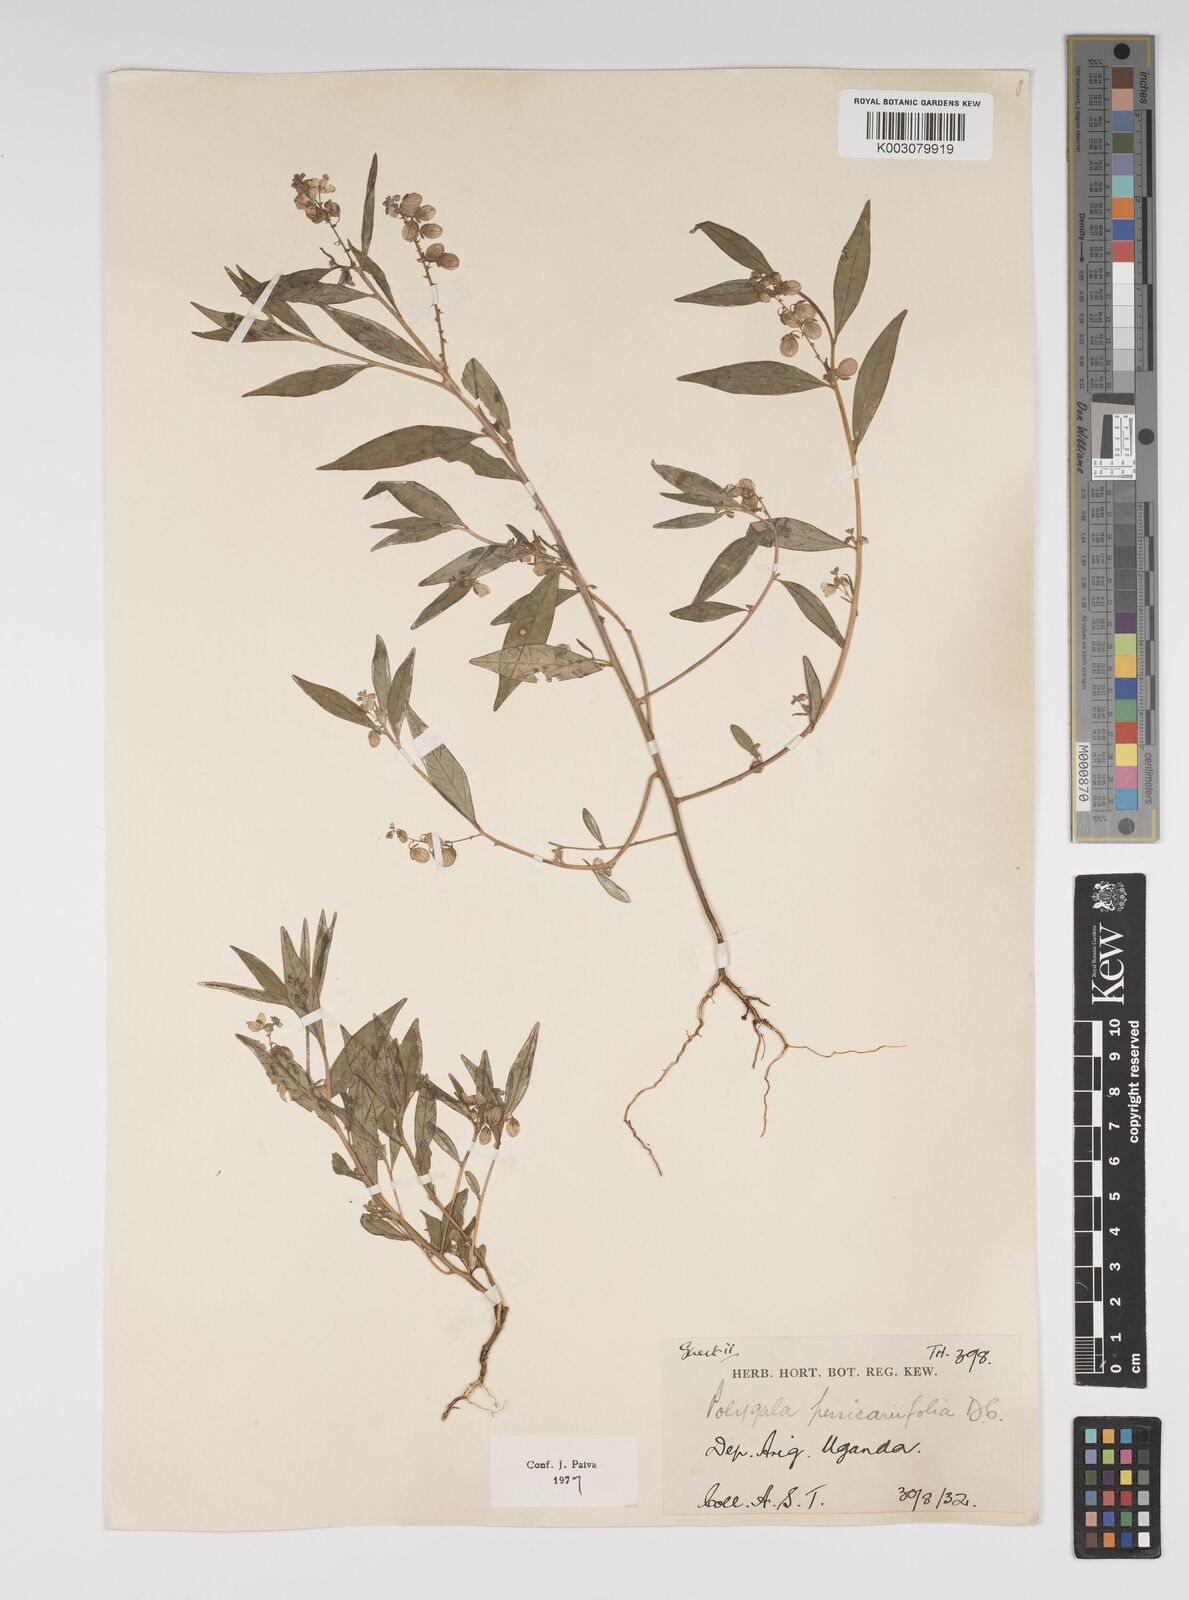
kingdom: Plantae
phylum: Tracheophyta
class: Magnoliopsida
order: Fabales
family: Polygalaceae
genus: Polygala
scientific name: Polygala persicariifolia
